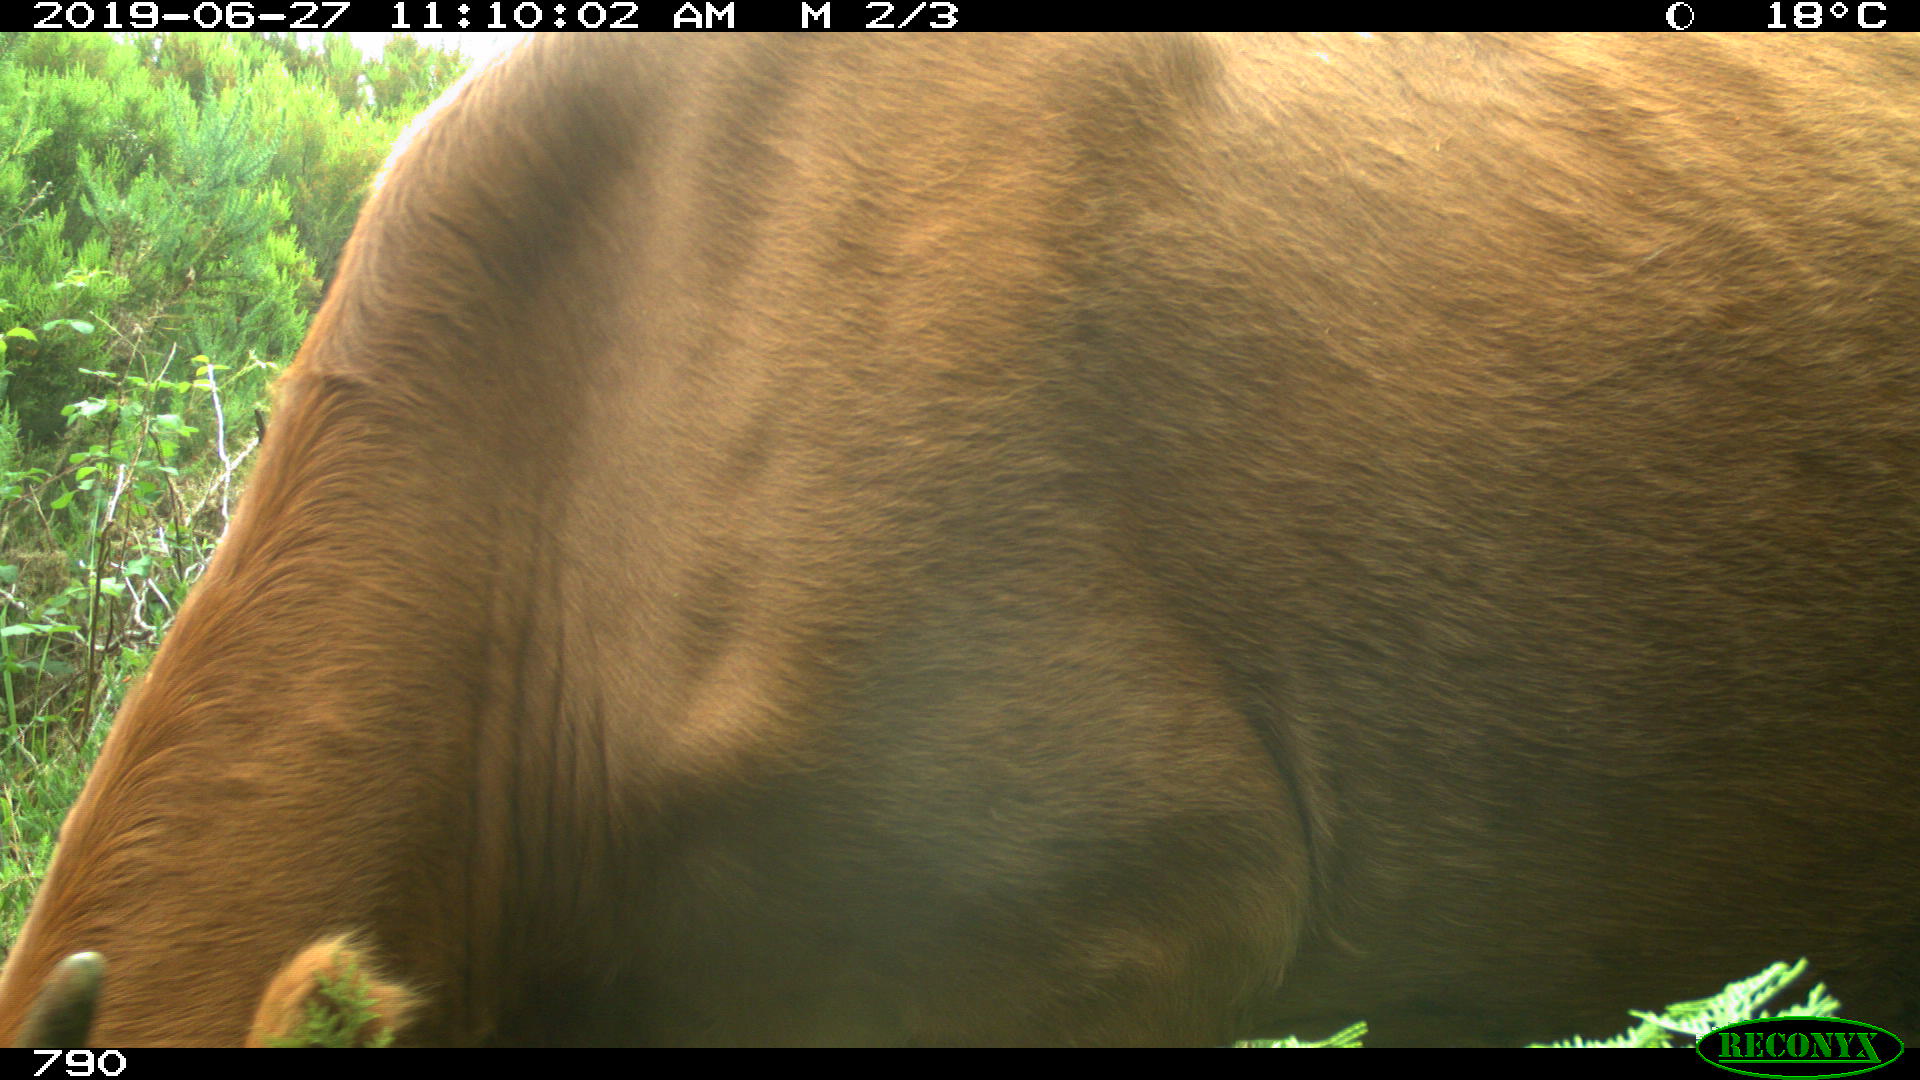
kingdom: Animalia
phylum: Chordata
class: Mammalia
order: Artiodactyla
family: Bovidae
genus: Bos
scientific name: Bos taurus
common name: Domesticated cattle
